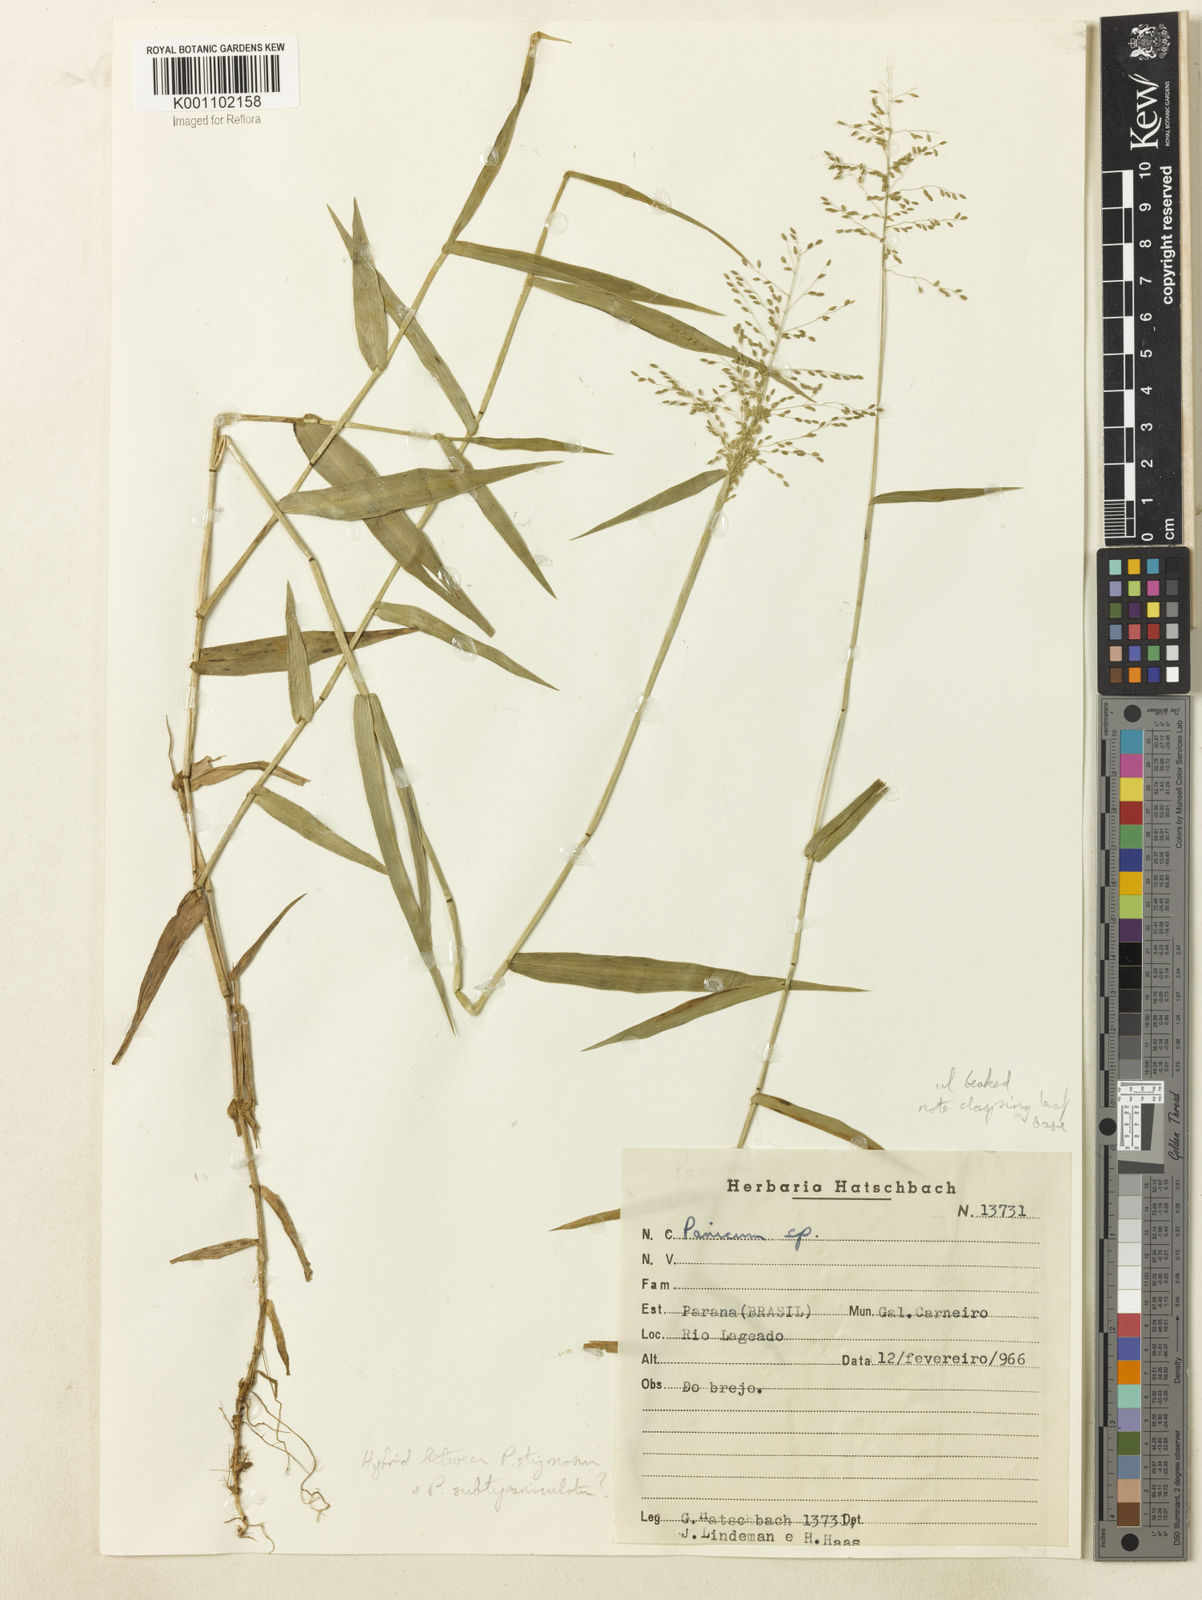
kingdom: Plantae
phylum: Tracheophyta
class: Liliopsida
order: Poales
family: Poaceae
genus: Dichanthelium
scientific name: Dichanthelium hebotes
